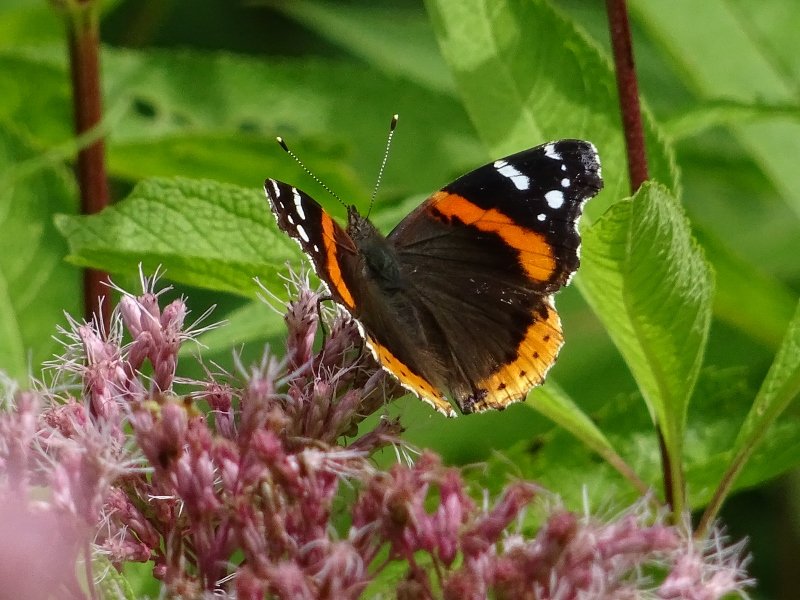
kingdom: Animalia
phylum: Arthropoda
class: Insecta
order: Lepidoptera
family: Nymphalidae
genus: Vanessa
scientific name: Vanessa atalanta
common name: Red Admiral
